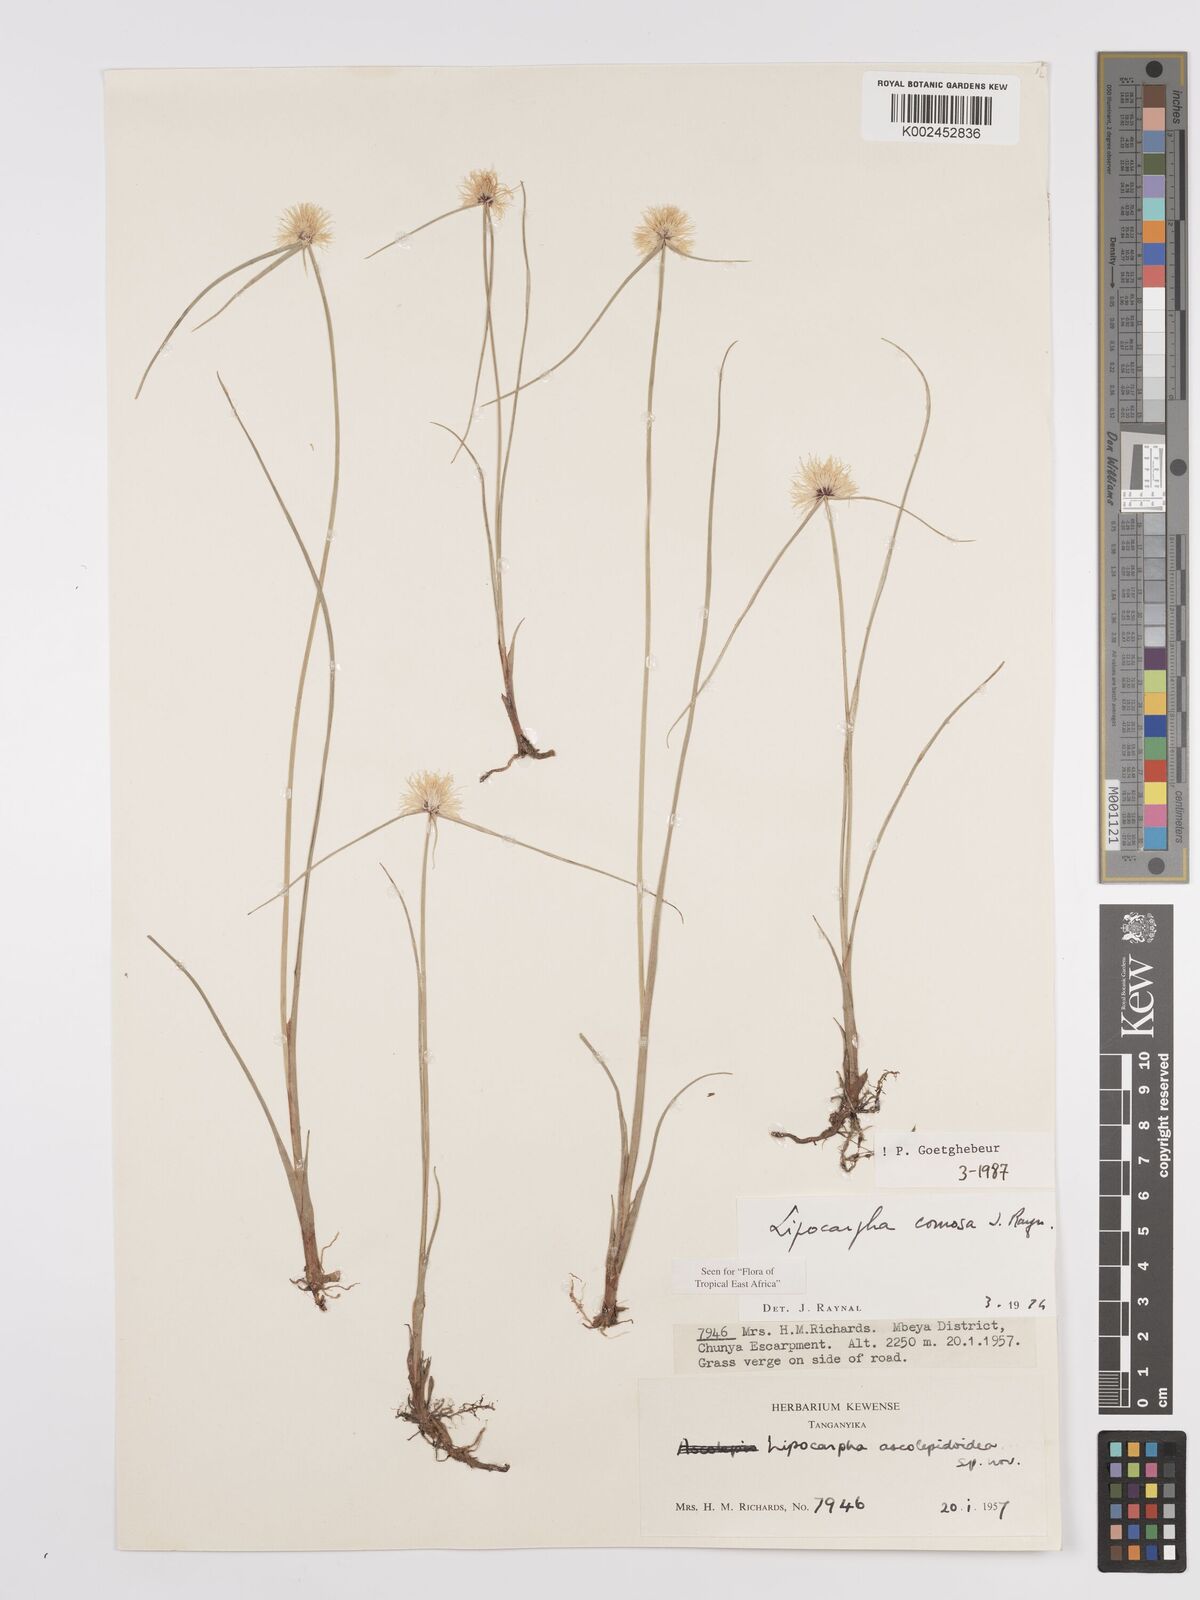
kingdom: Plantae
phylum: Tracheophyta
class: Liliopsida
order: Poales
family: Cyperaceae
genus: Cyperus
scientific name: Cyperus
